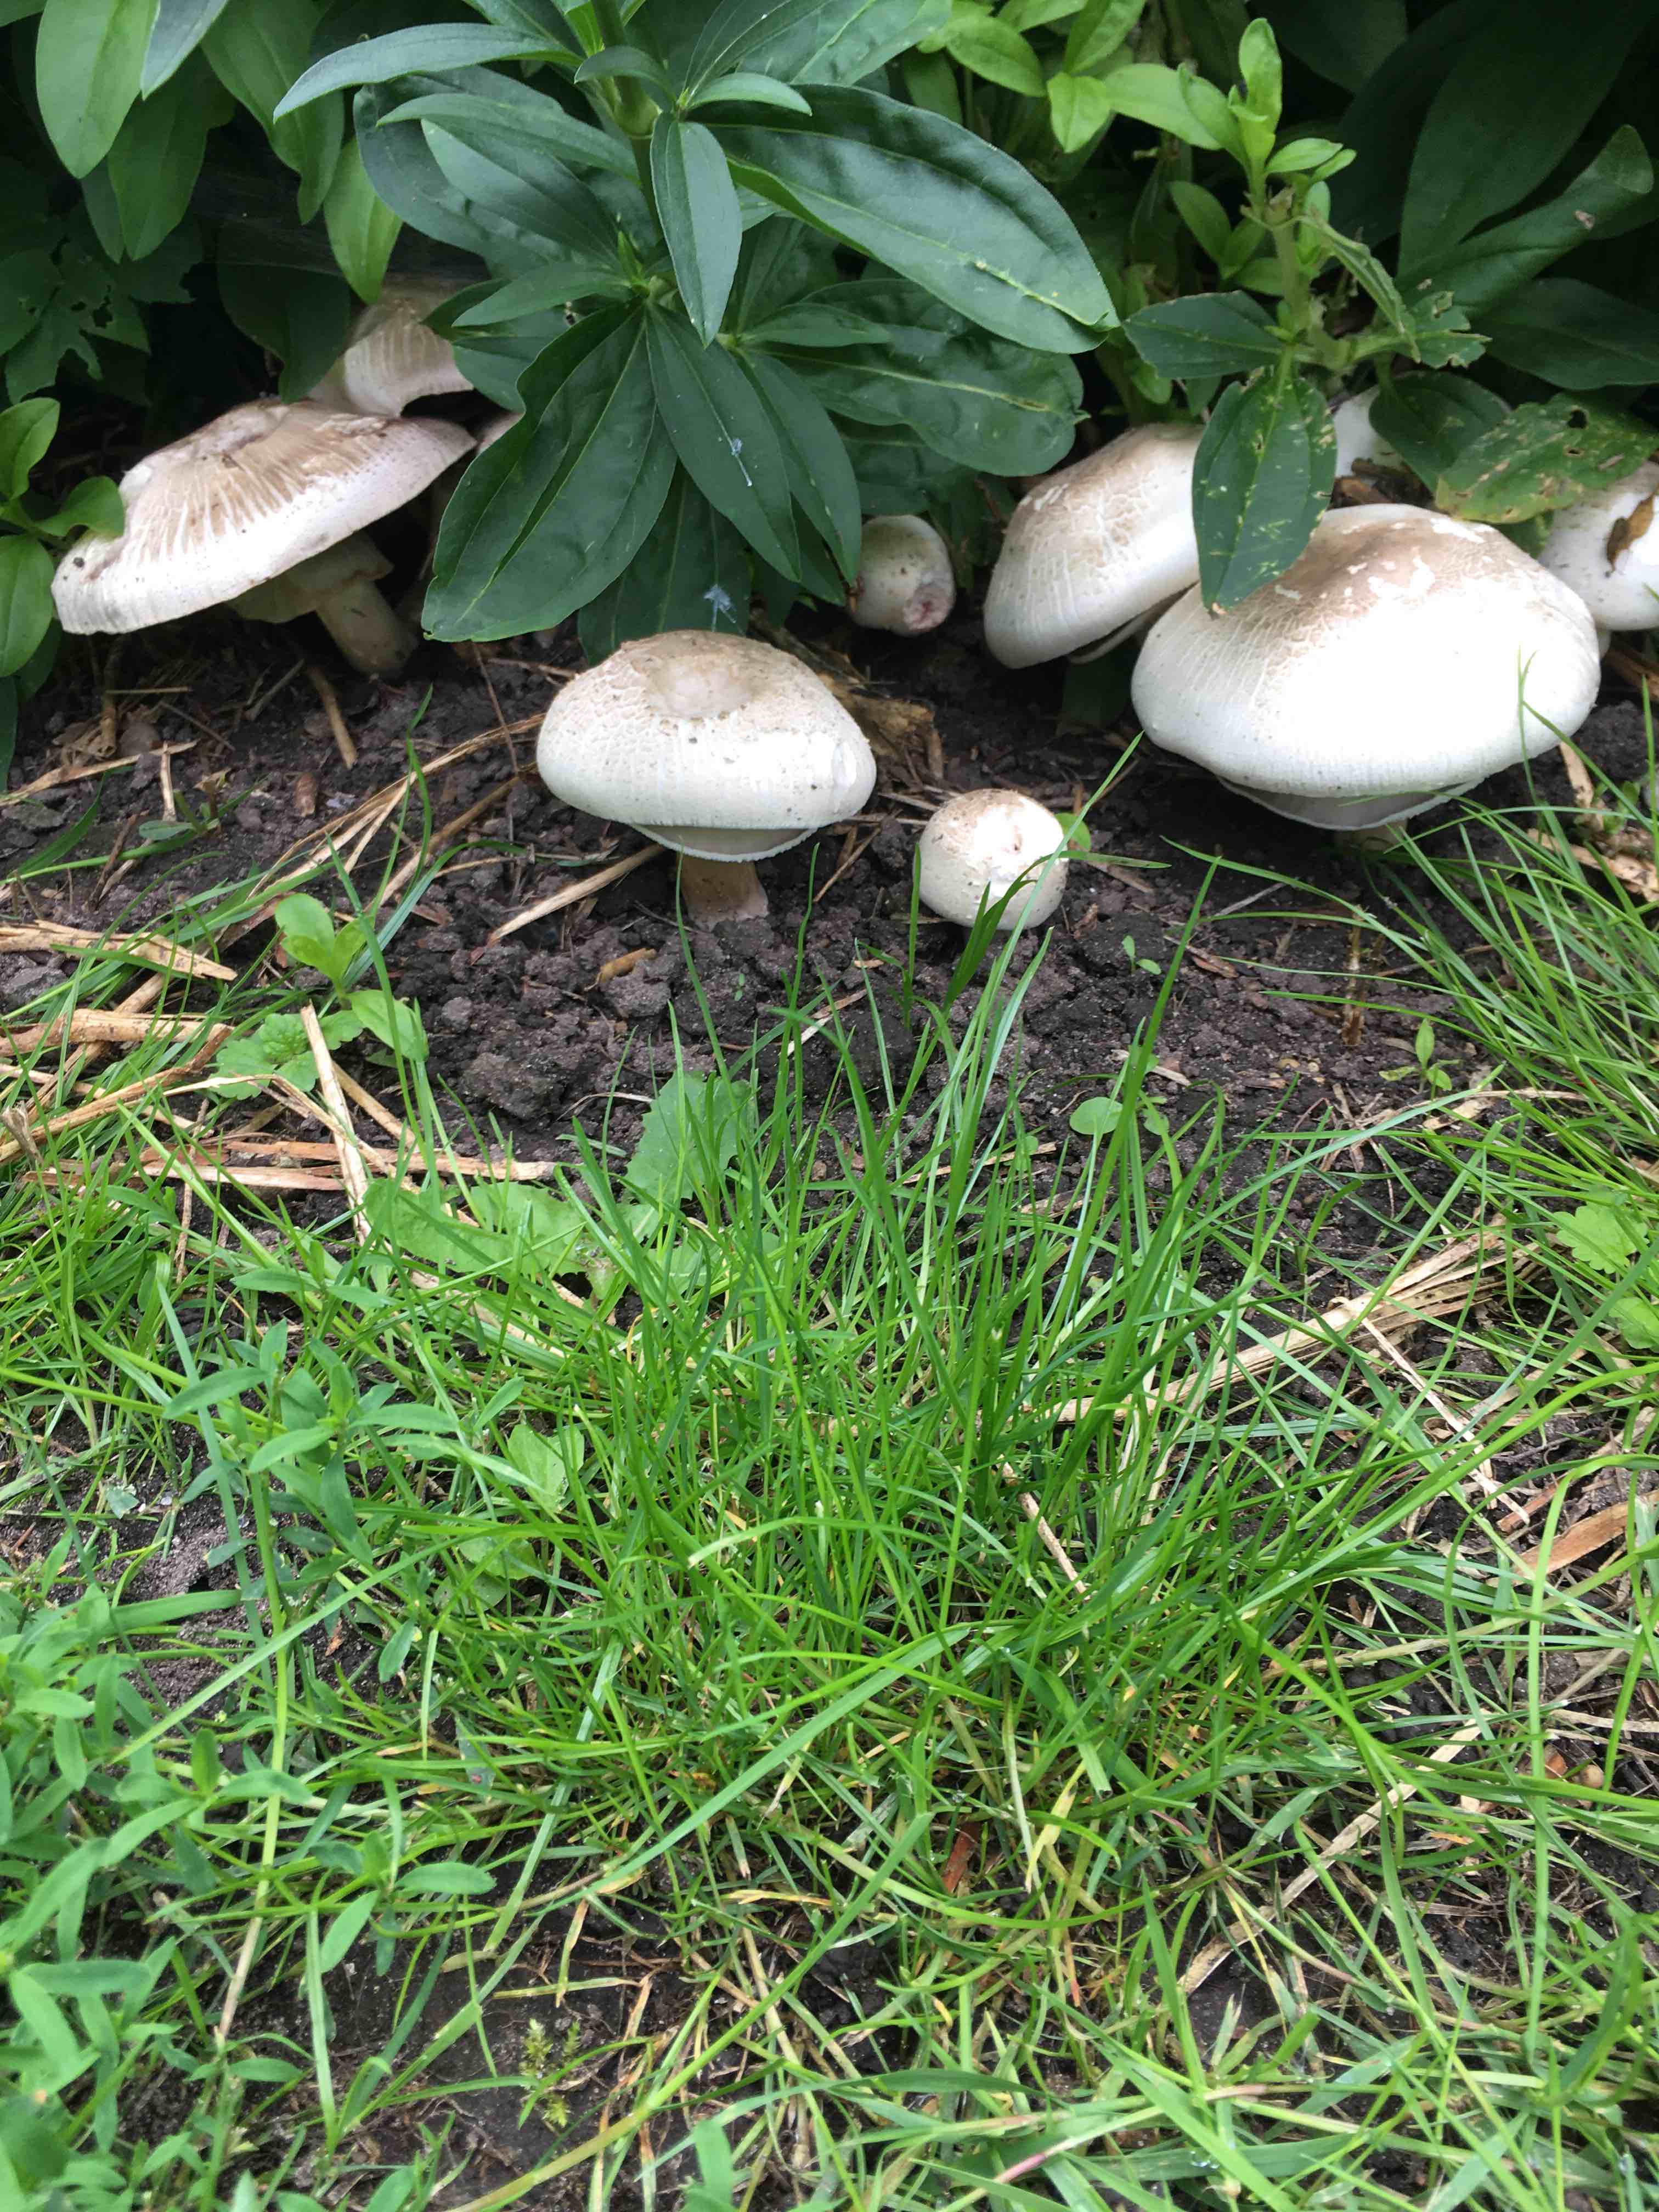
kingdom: Fungi
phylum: Basidiomycota
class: Agaricomycetes
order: Agaricales
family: Agaricaceae
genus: Agaricus
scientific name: Agaricus xanthodermus
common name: karbol-champignon
